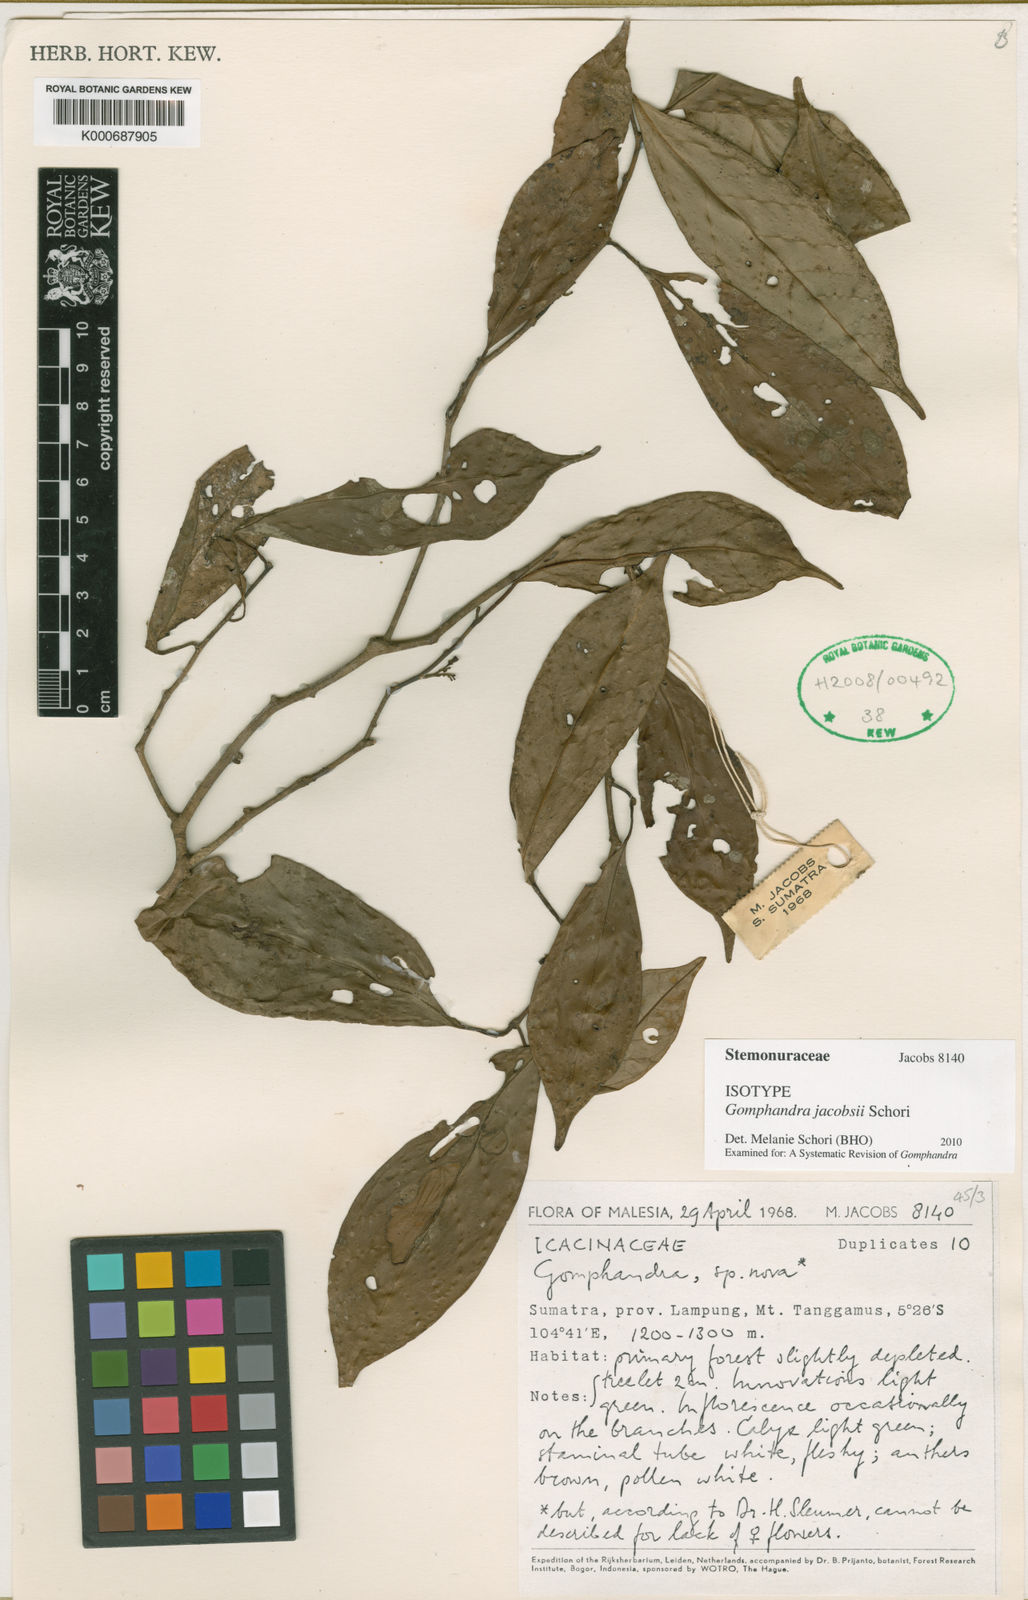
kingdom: Plantae
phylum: Tracheophyta
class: Magnoliopsida
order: Cardiopteridales
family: Stemonuraceae
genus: Gomphandra
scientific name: Gomphandra
